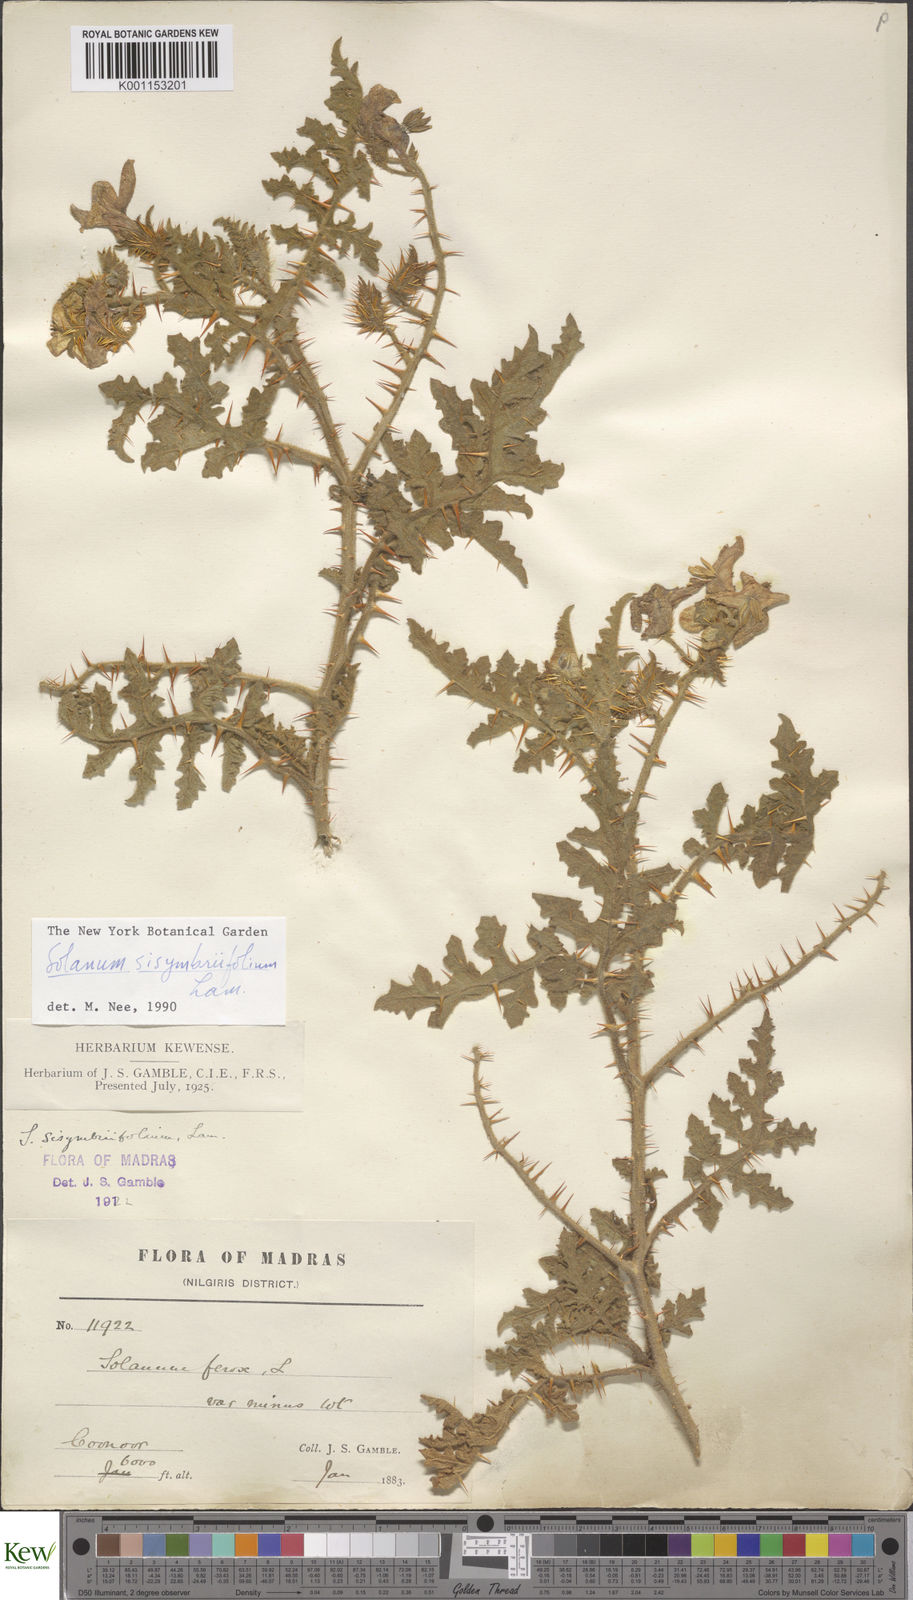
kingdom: Plantae
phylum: Tracheophyta
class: Magnoliopsida
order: Solanales
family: Solanaceae
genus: Solanum
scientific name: Solanum sisymbriifolium
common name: Red buffalo-bur
